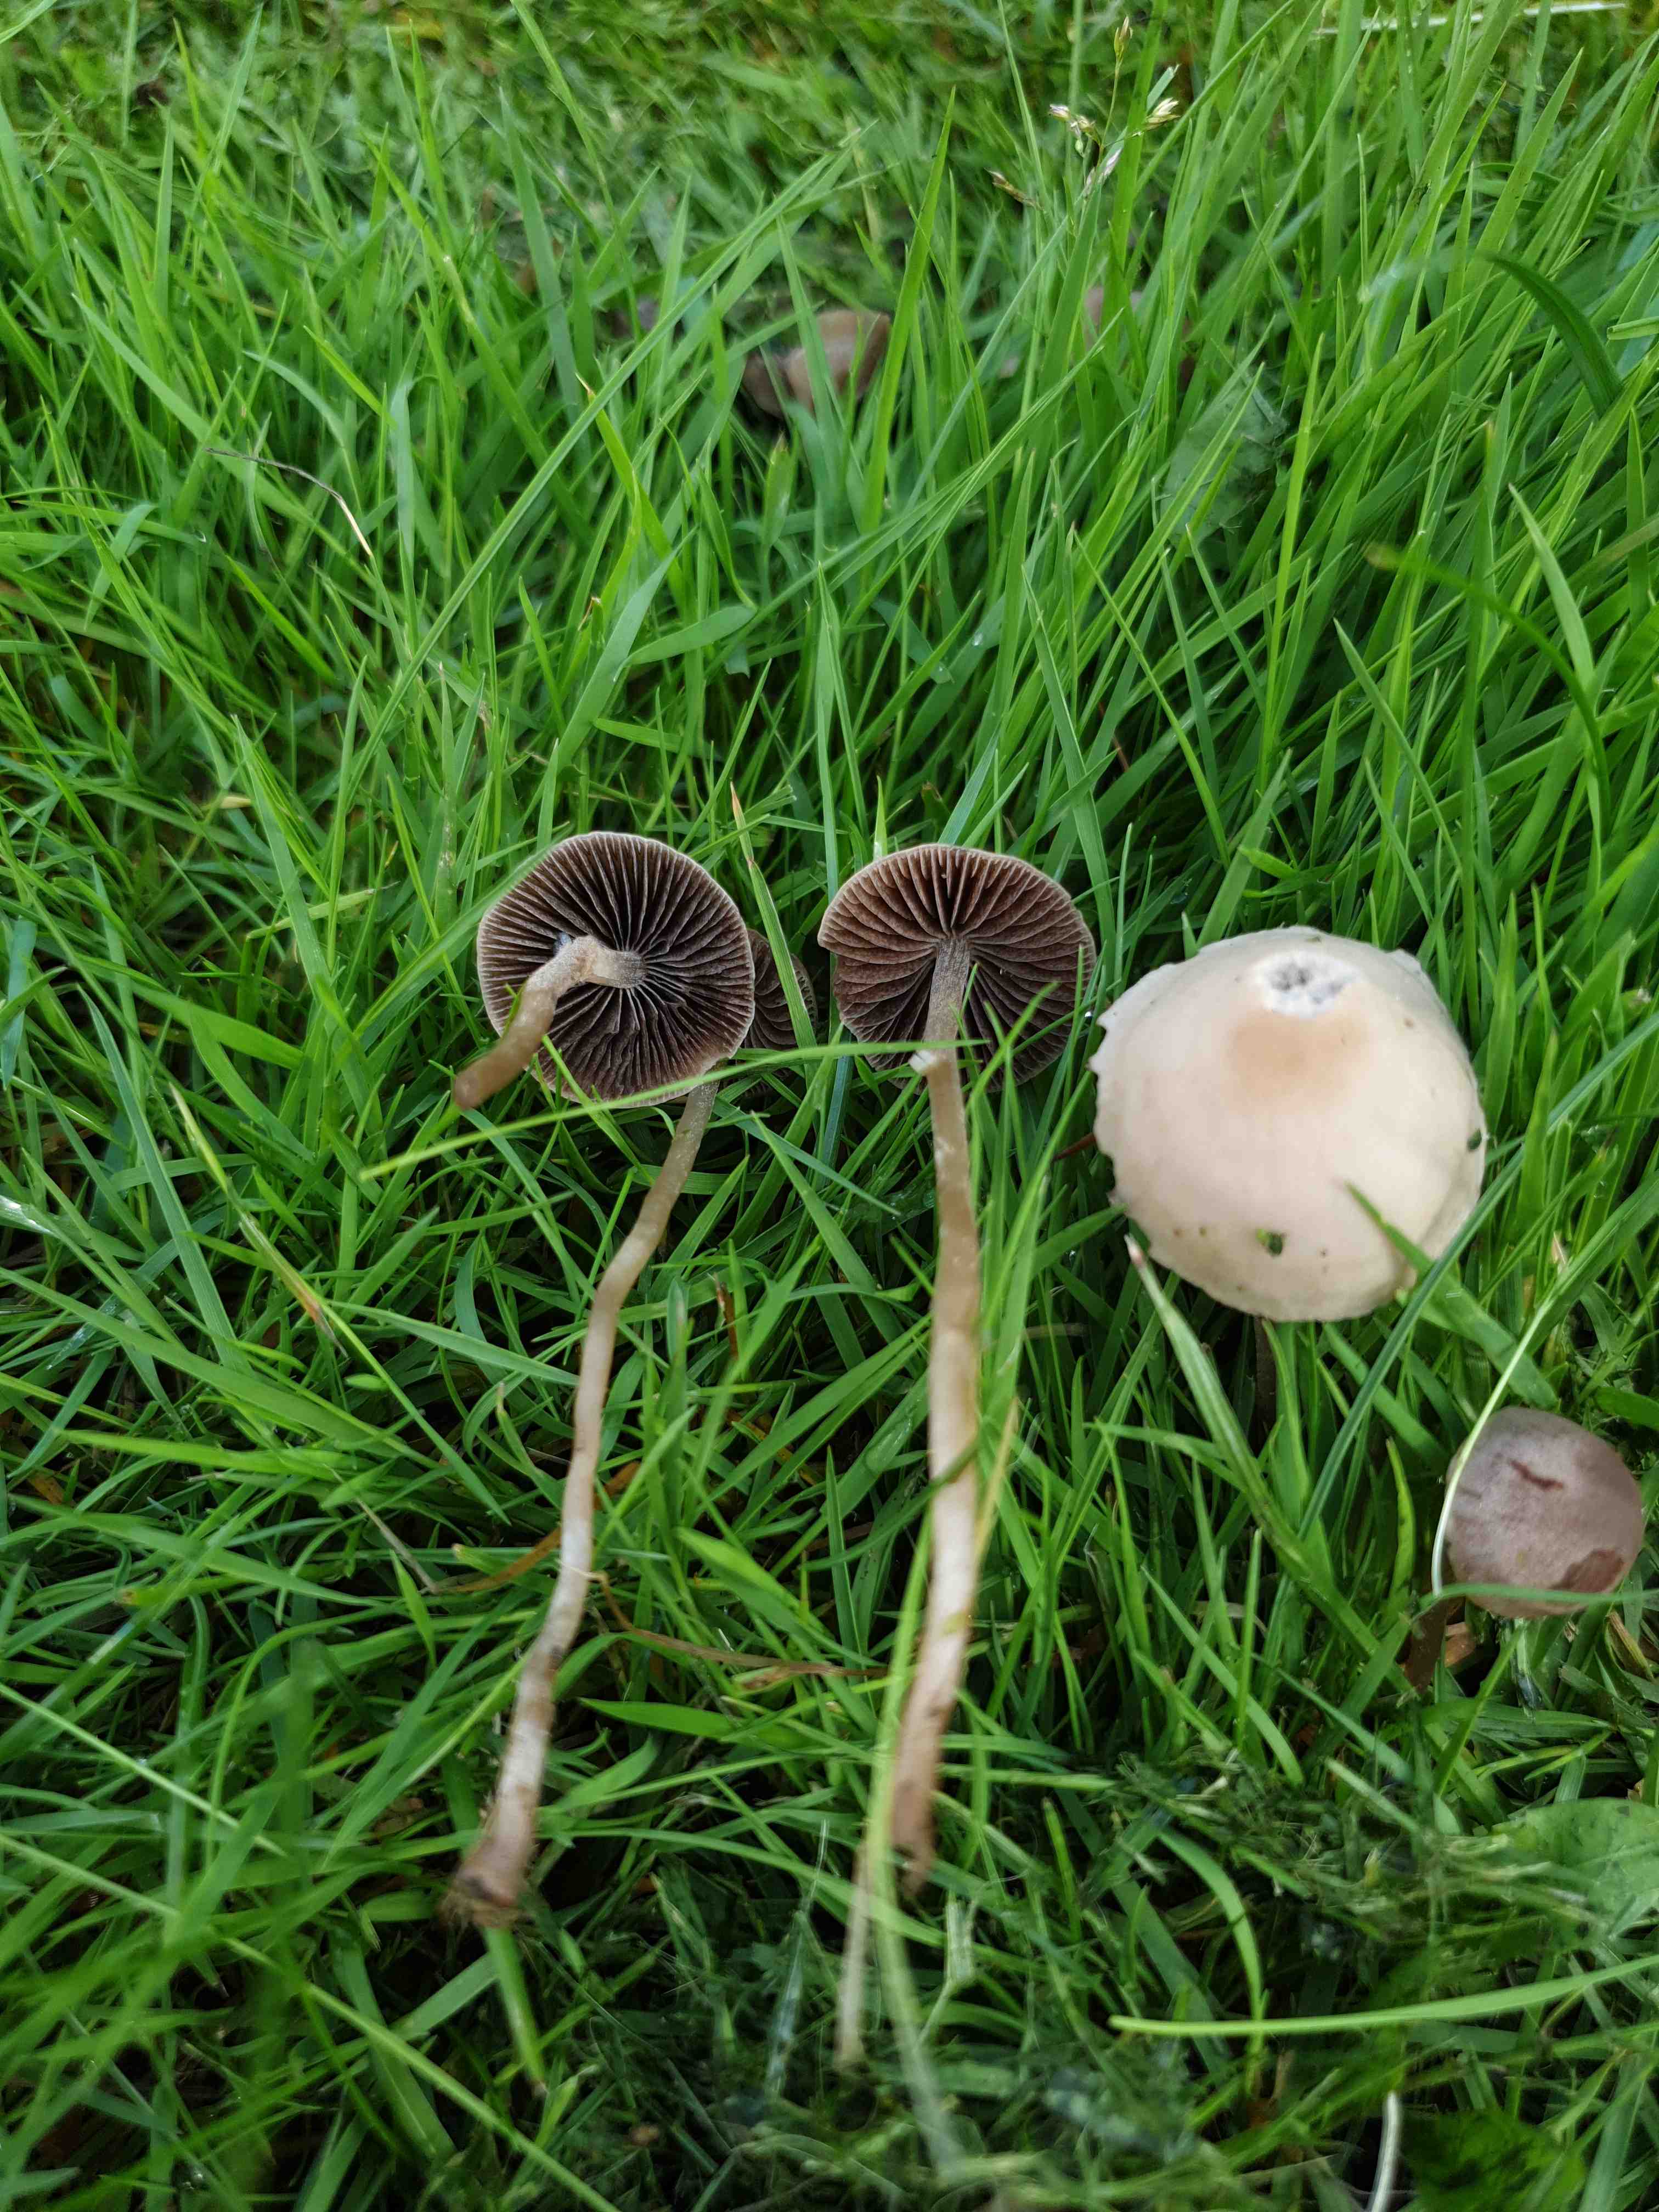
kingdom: Fungi
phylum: Basidiomycota
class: Agaricomycetes
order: Agaricales
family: Bolbitiaceae
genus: Panaeolina
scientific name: Panaeolina foenisecii
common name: høslætsvamp
